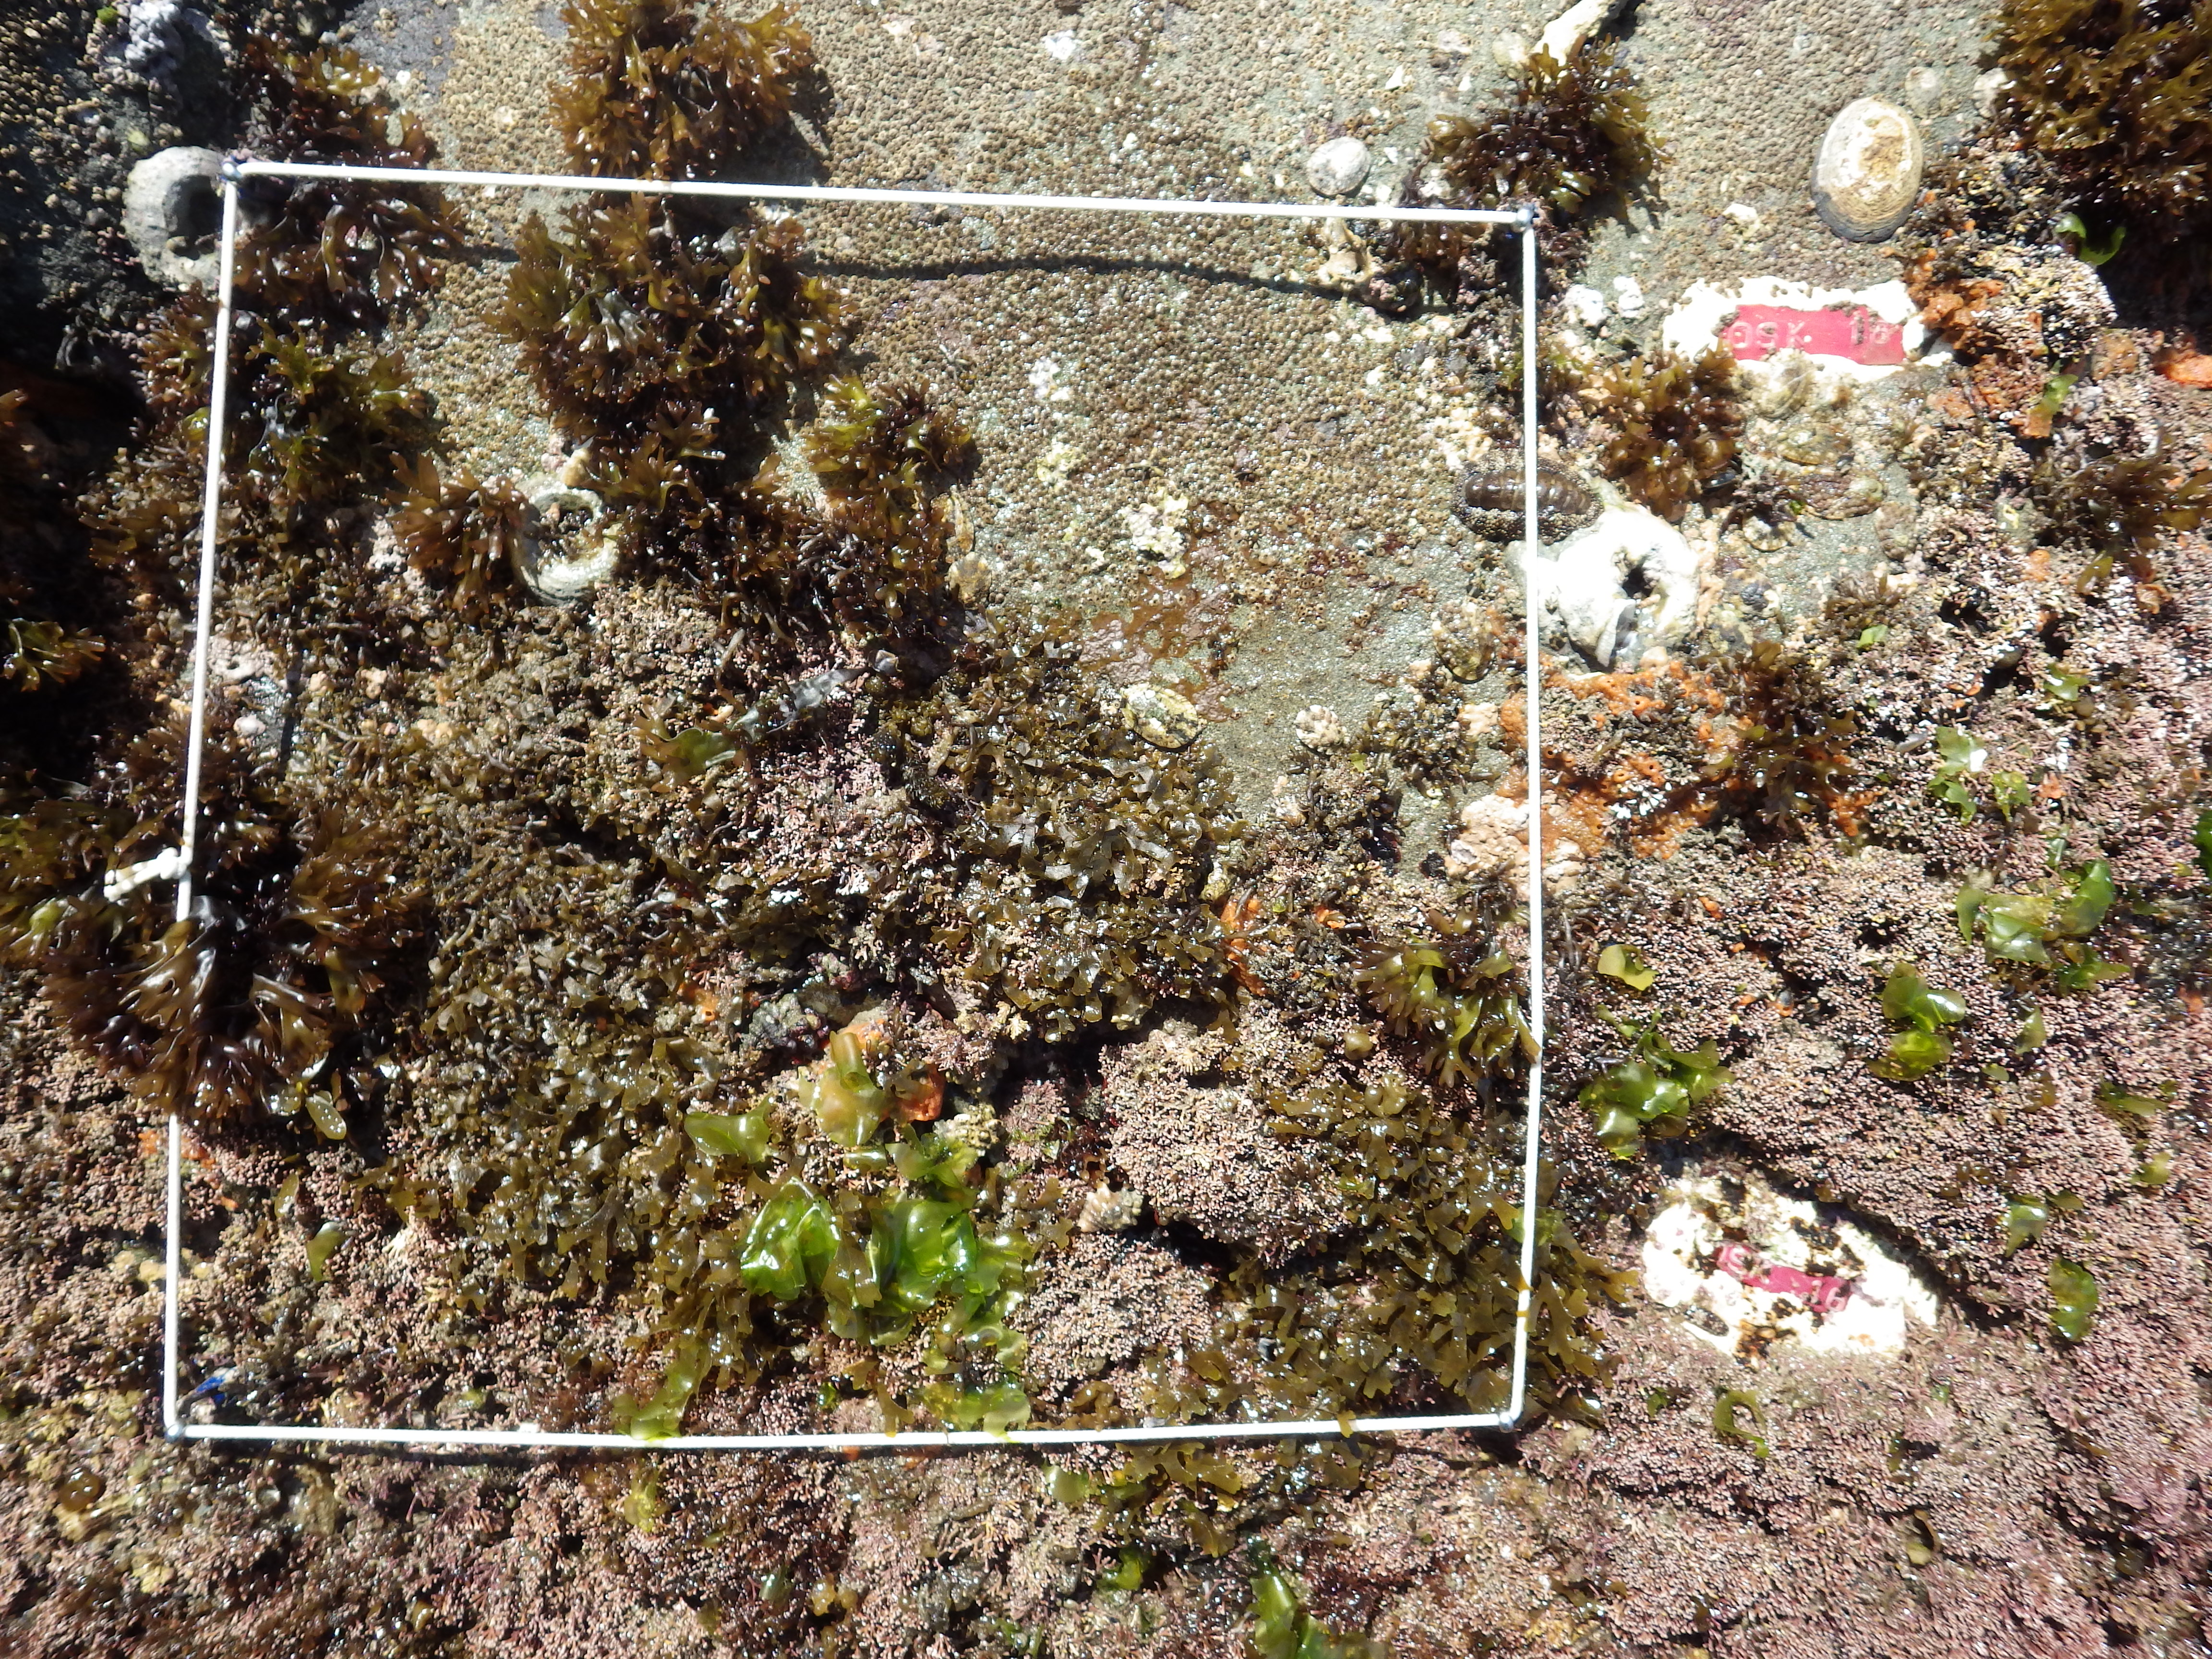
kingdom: Animalia
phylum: Arthropoda
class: Maxillopoda
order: Sessilia
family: Chthamalidae
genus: Chthamalus
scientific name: Chthamalus challengeri
